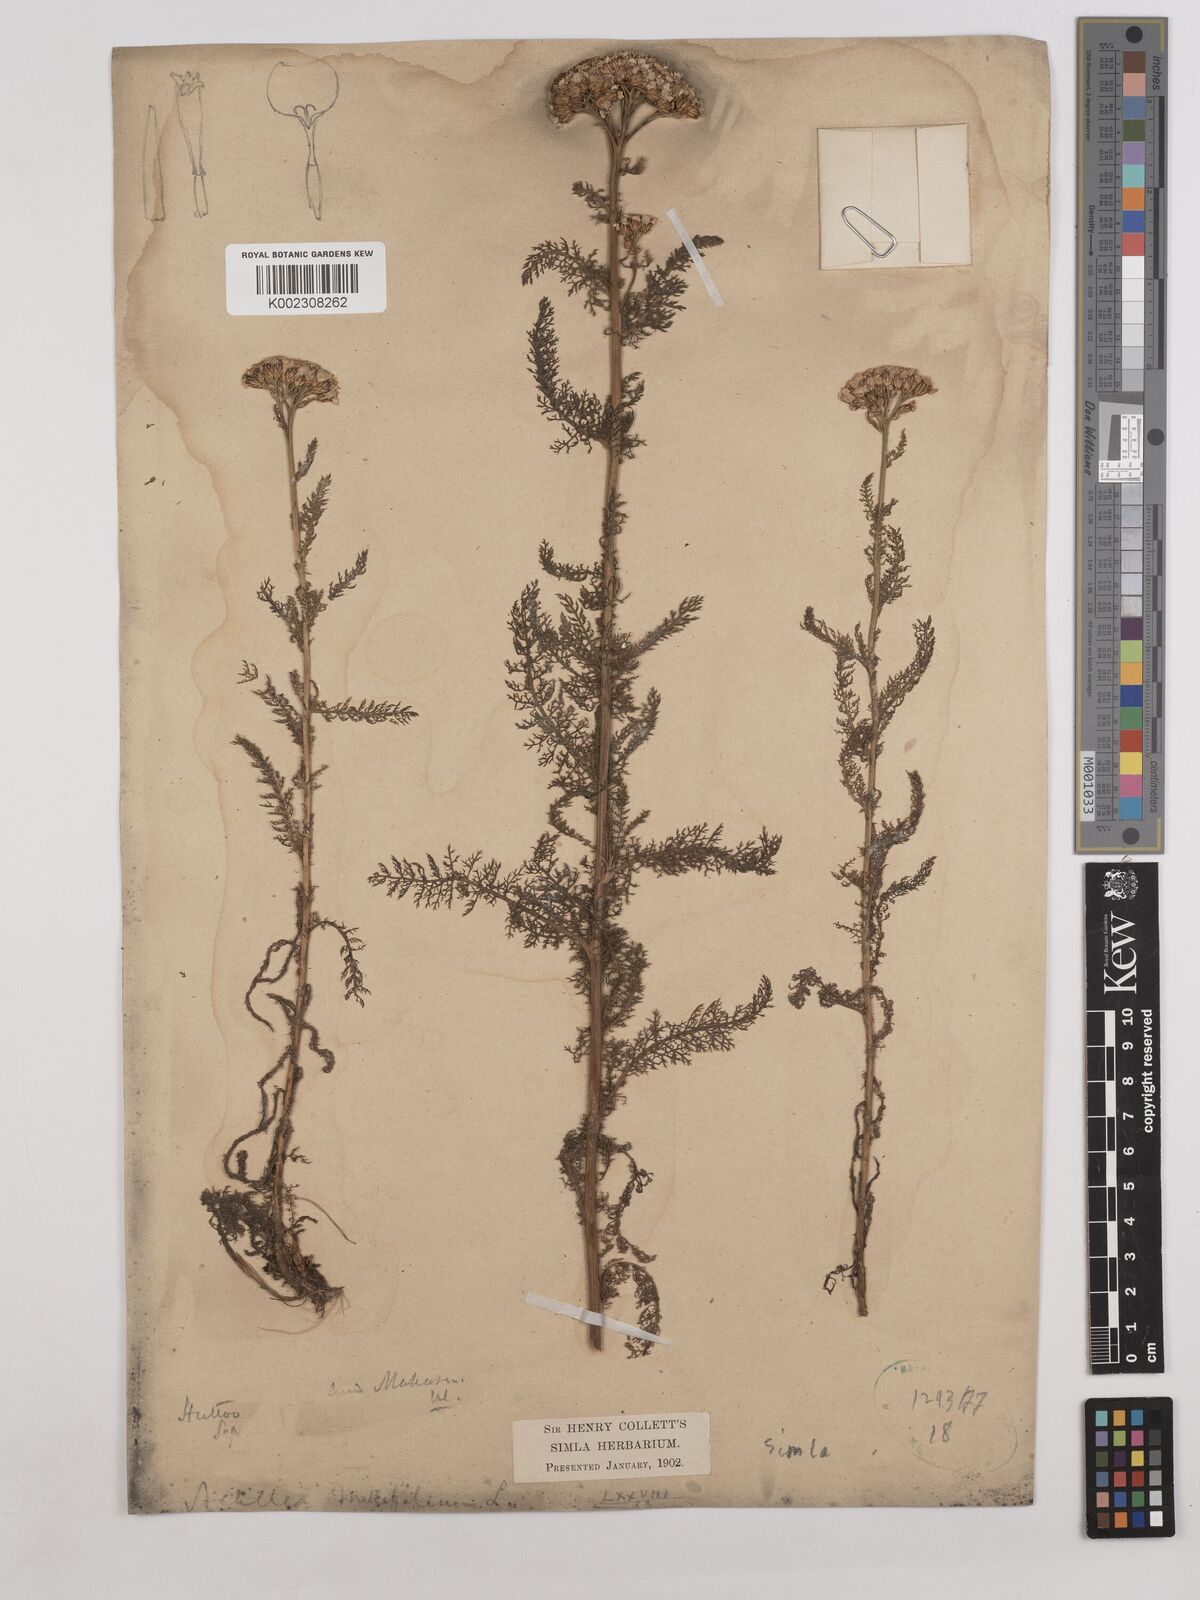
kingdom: Plantae
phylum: Tracheophyta
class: Magnoliopsida
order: Asterales
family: Asteraceae
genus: Achillea
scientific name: Achillea millefolium
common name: Yarrow
